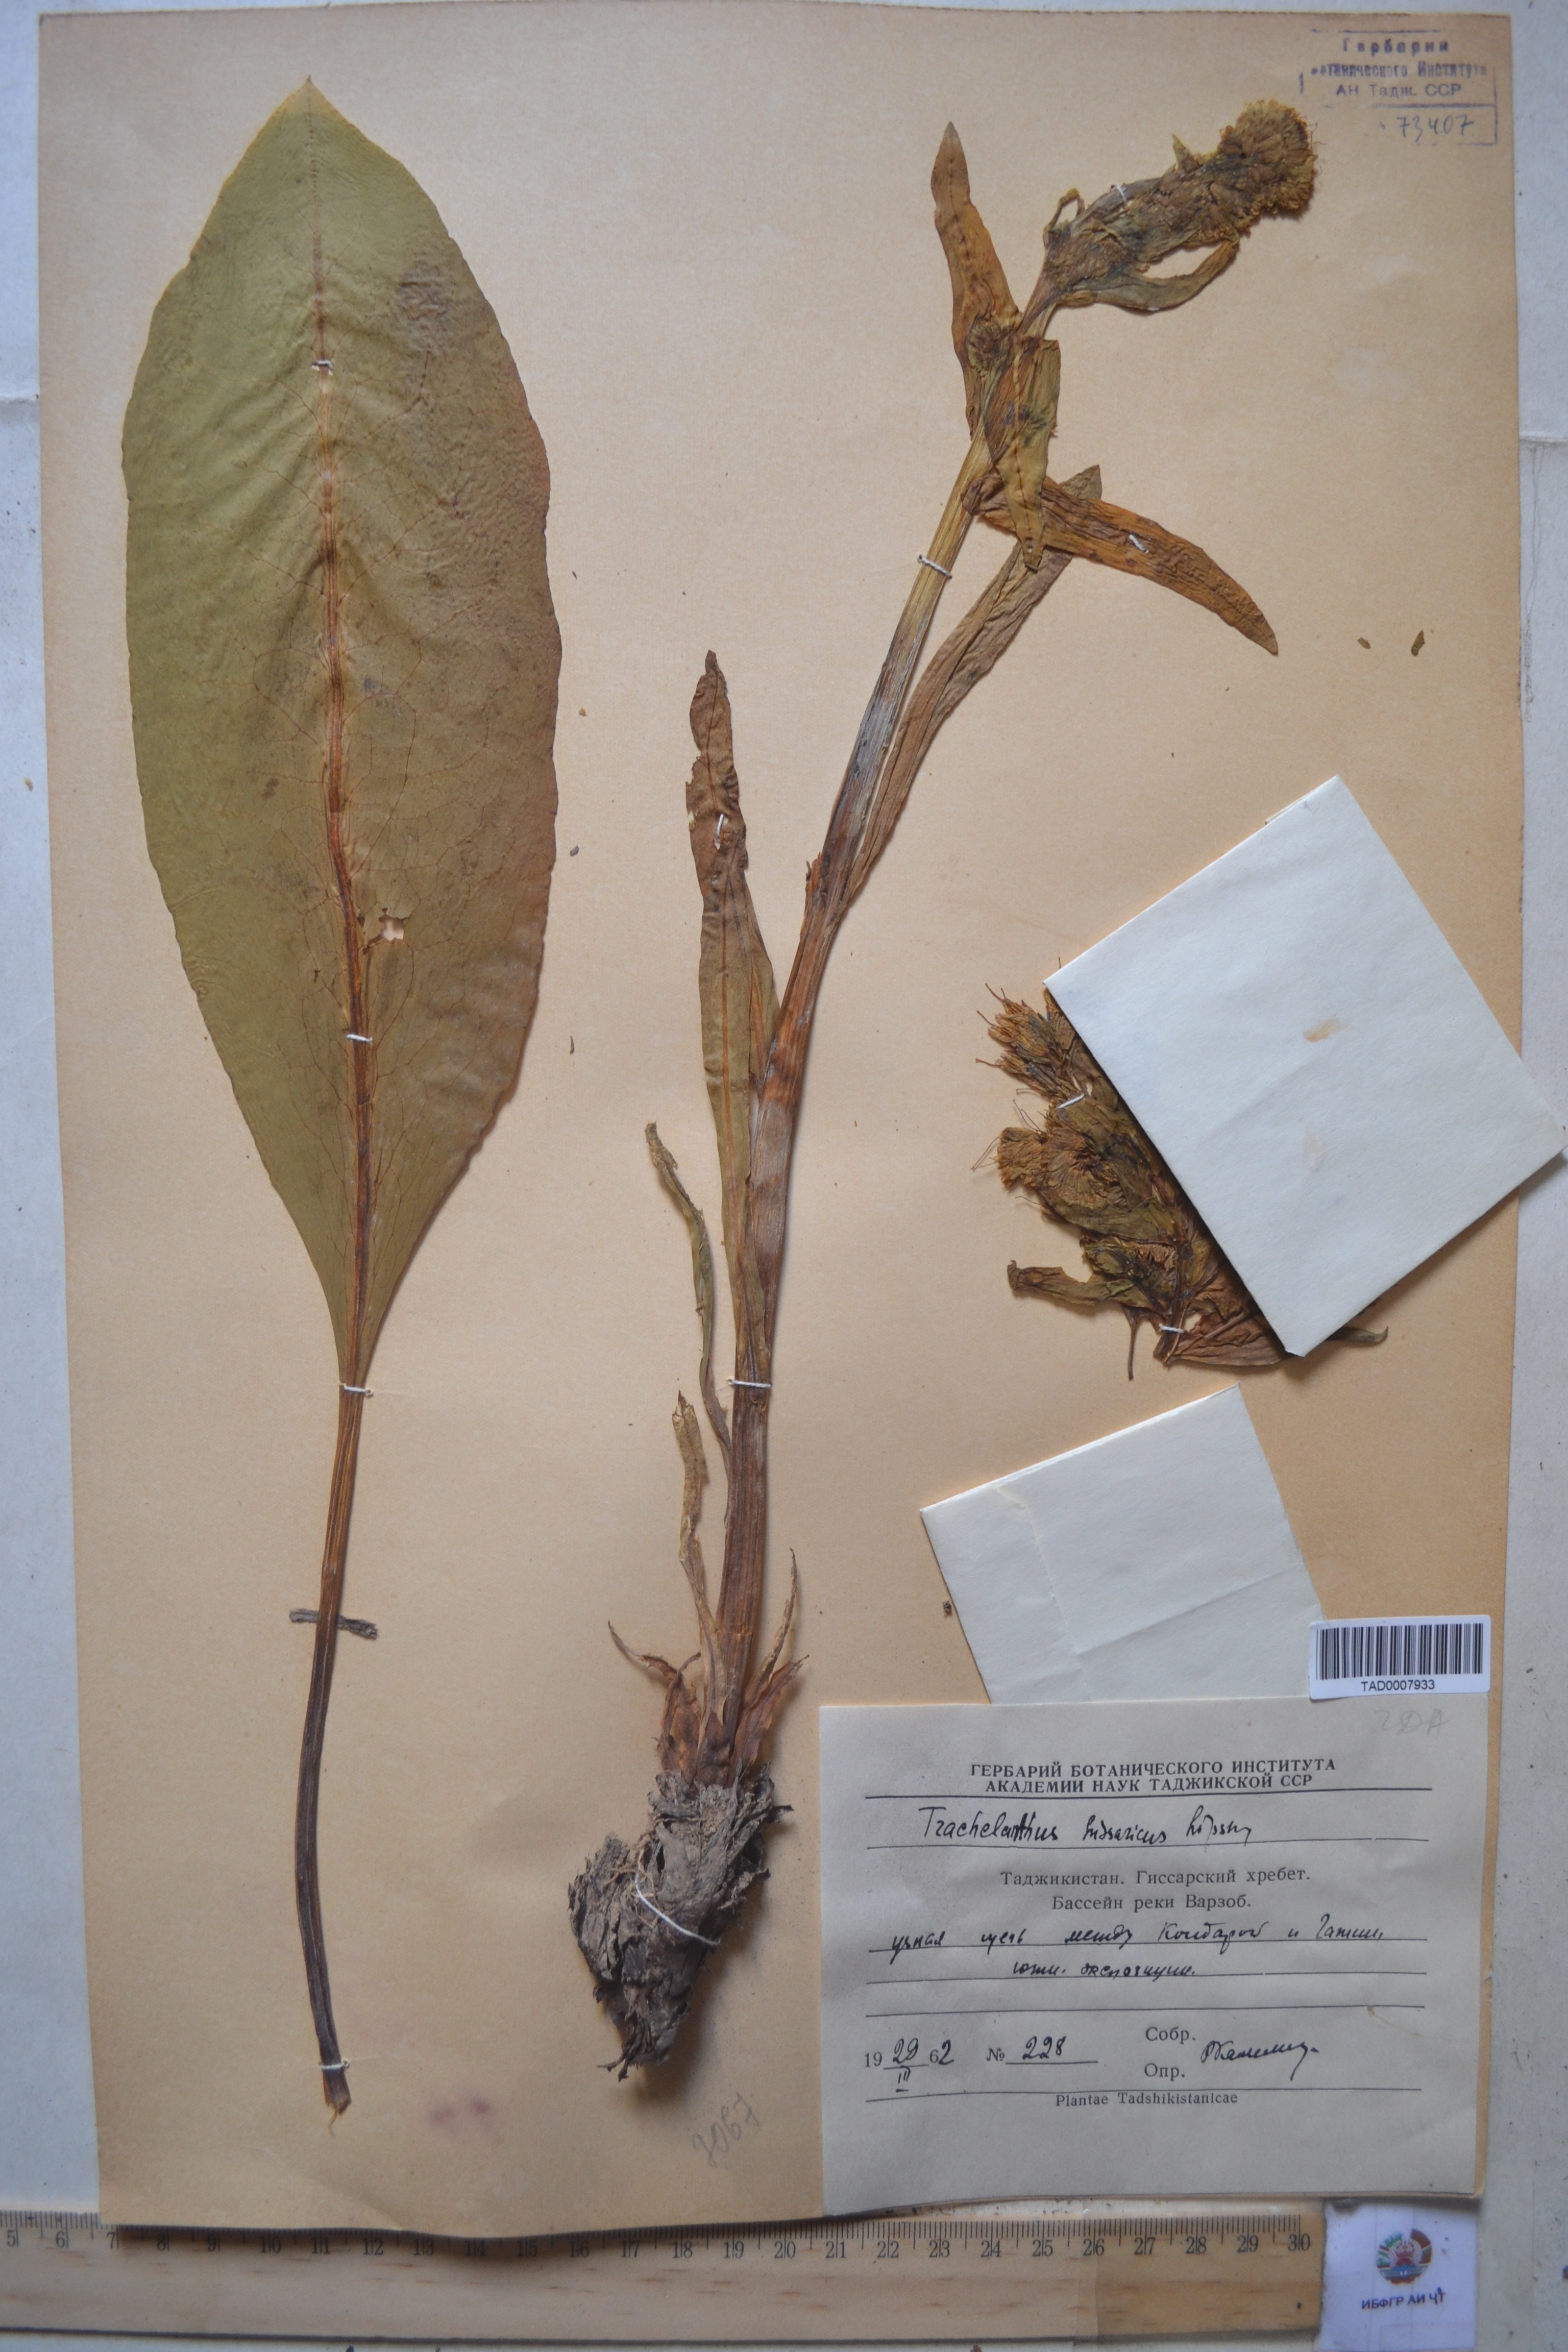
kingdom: Plantae
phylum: Tracheophyta
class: Magnoliopsida
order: Boraginales
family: Boraginaceae
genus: Lindelofia
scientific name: Lindelofia hissarica
